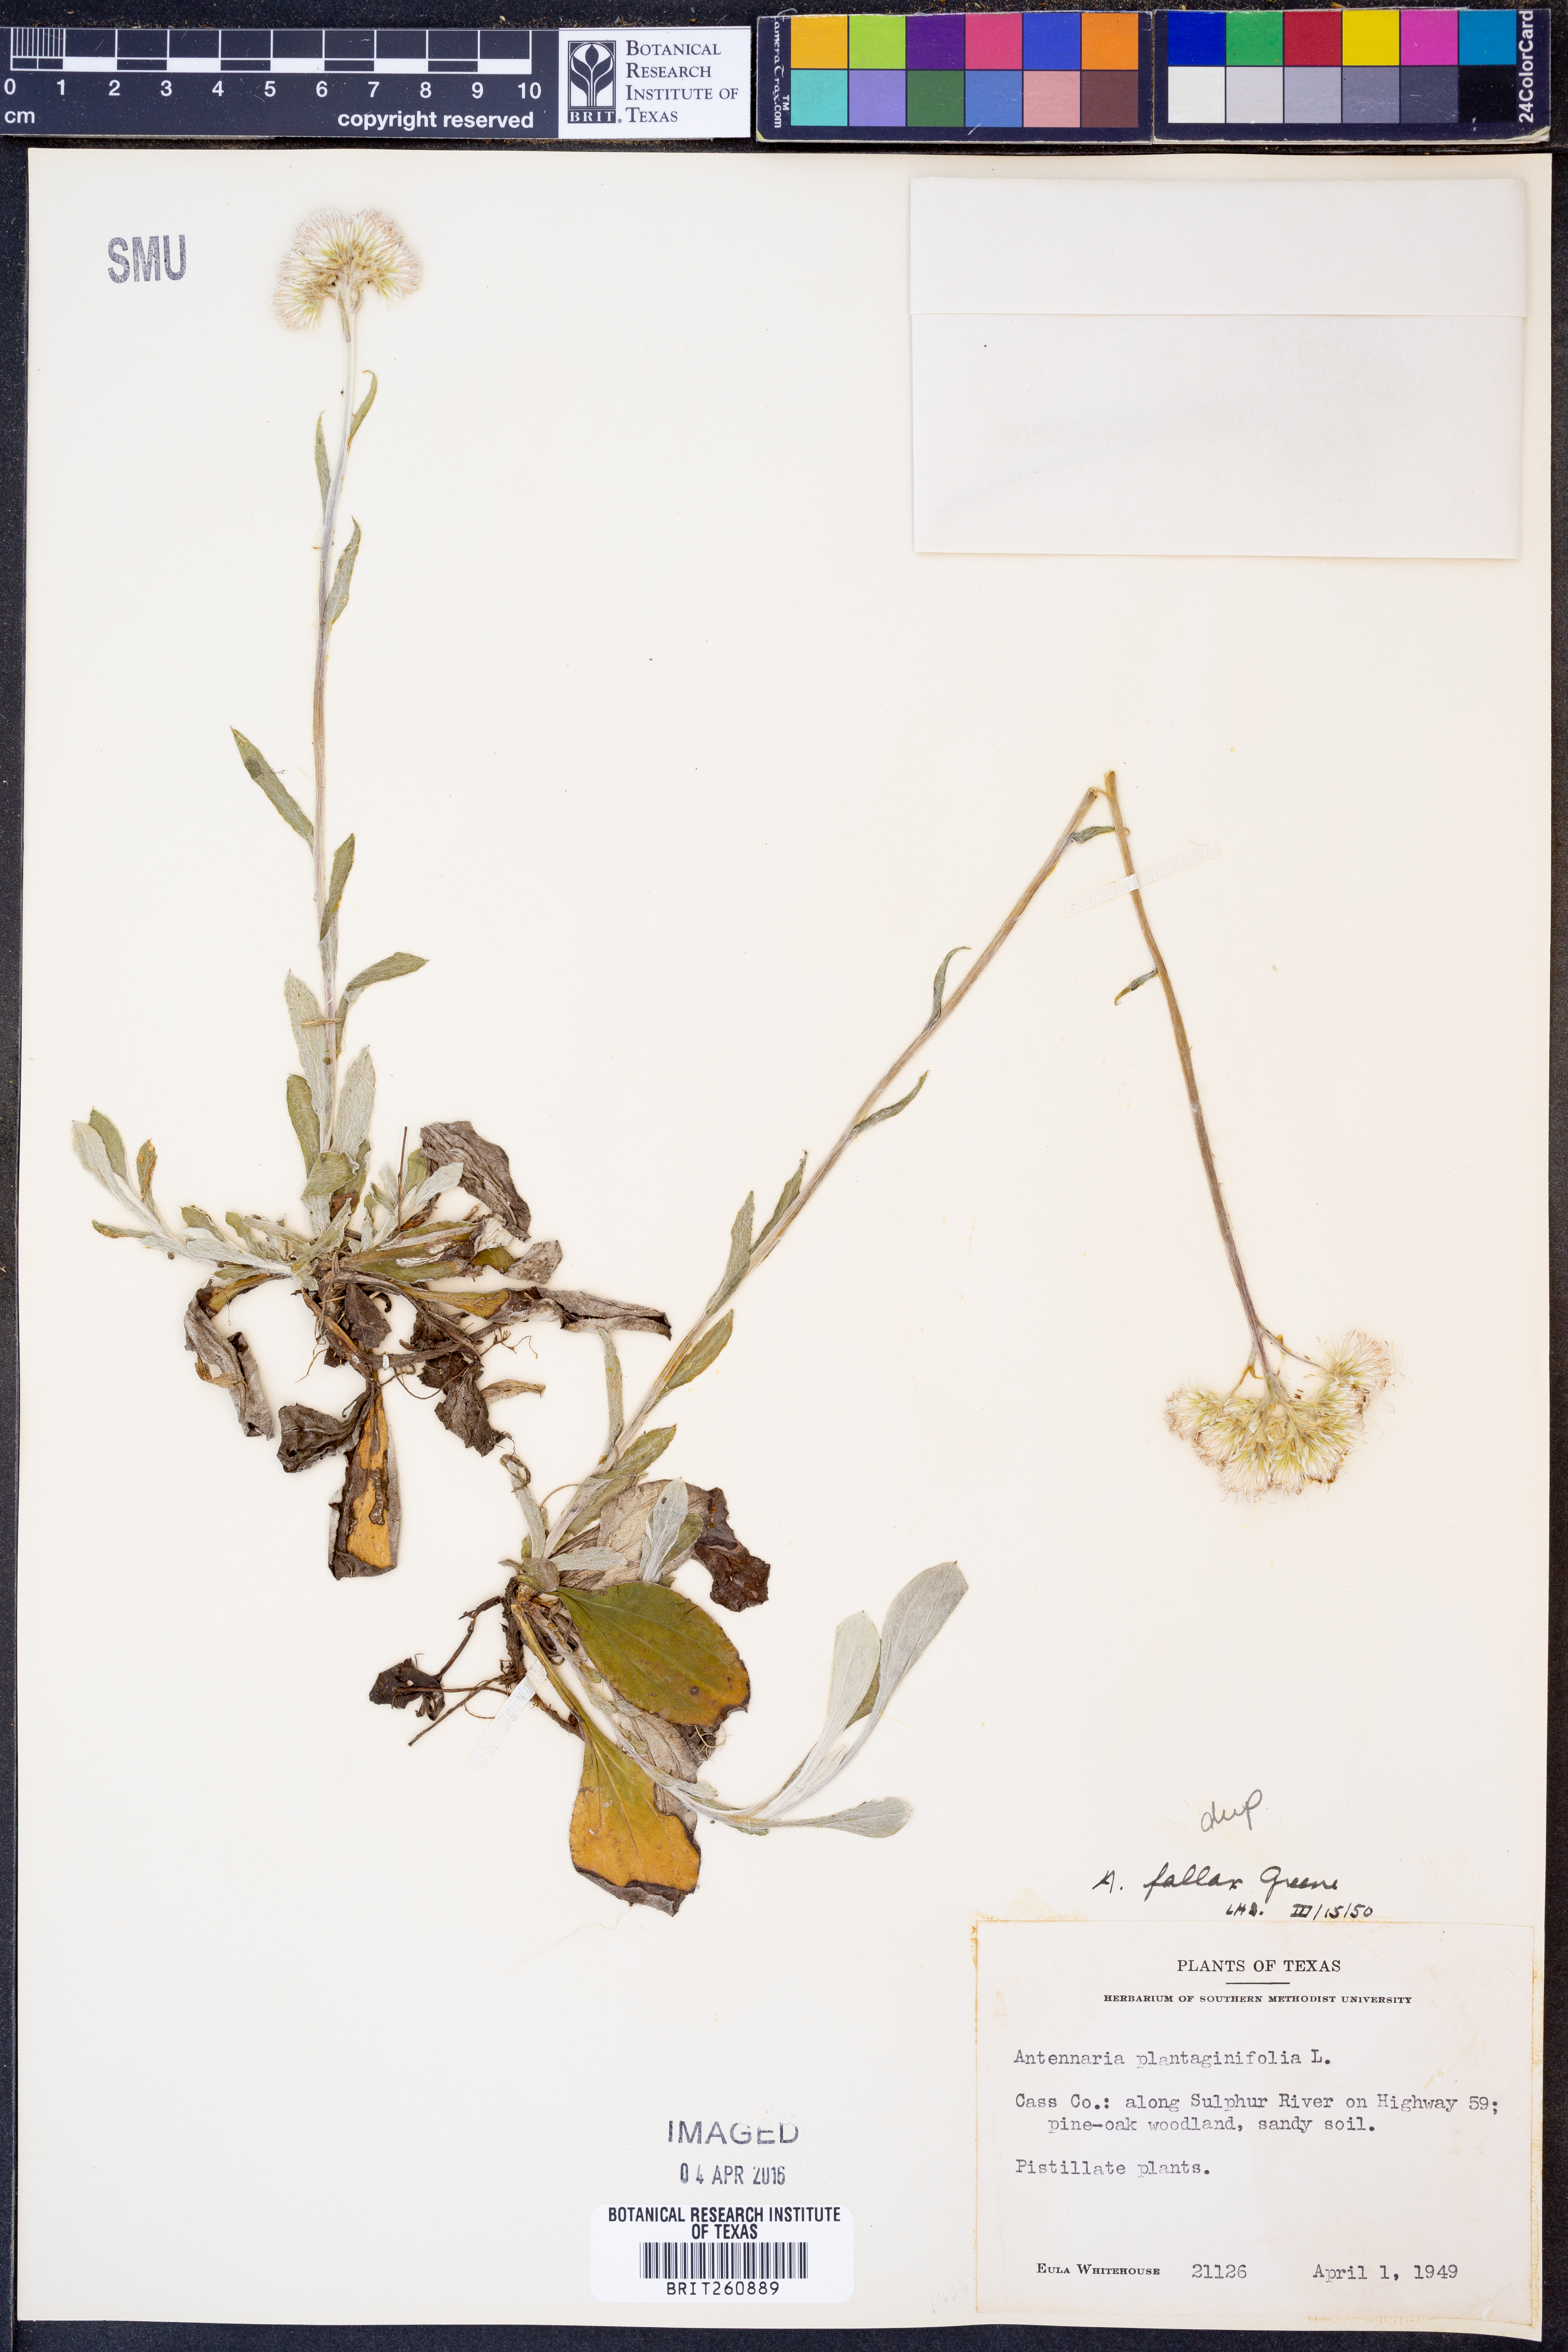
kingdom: Plantae
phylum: Tracheophyta
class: Magnoliopsida
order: Asterales
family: Asteraceae
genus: Antennaria
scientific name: Antennaria parlinii
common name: Parlin's pussytoes
